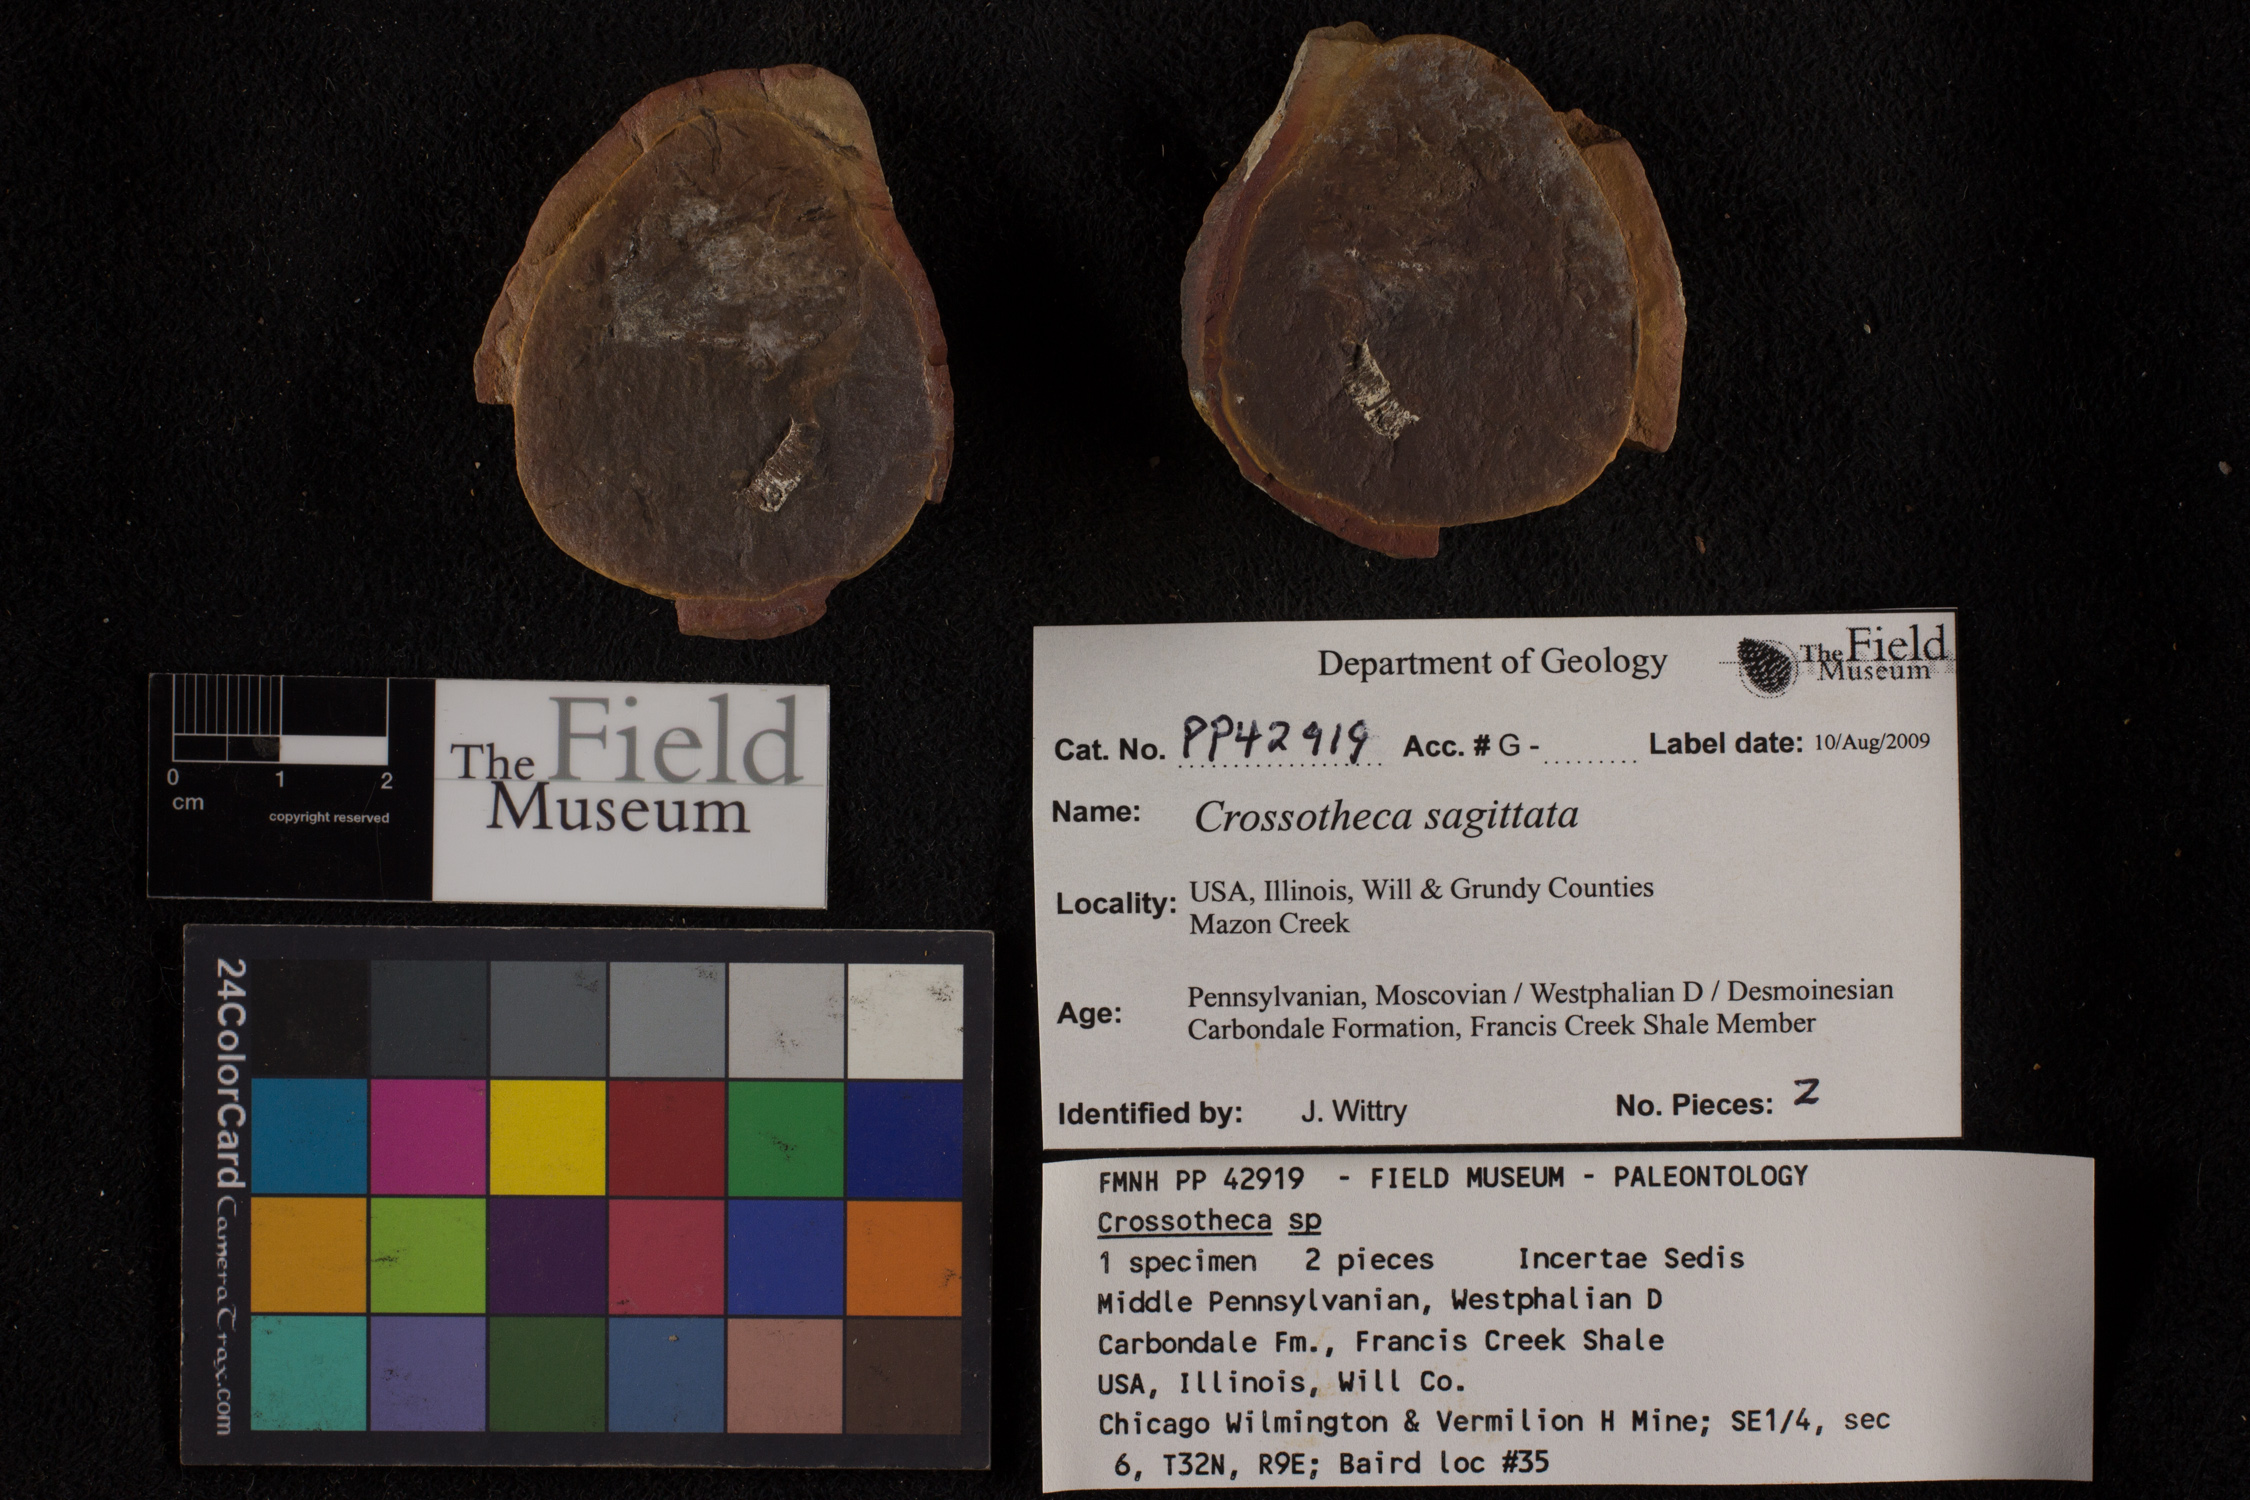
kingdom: Plantae
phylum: Tracheophyta
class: Polypodiopsida
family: Stauropteridaceae
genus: Crossotheca
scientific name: Crossotheca
